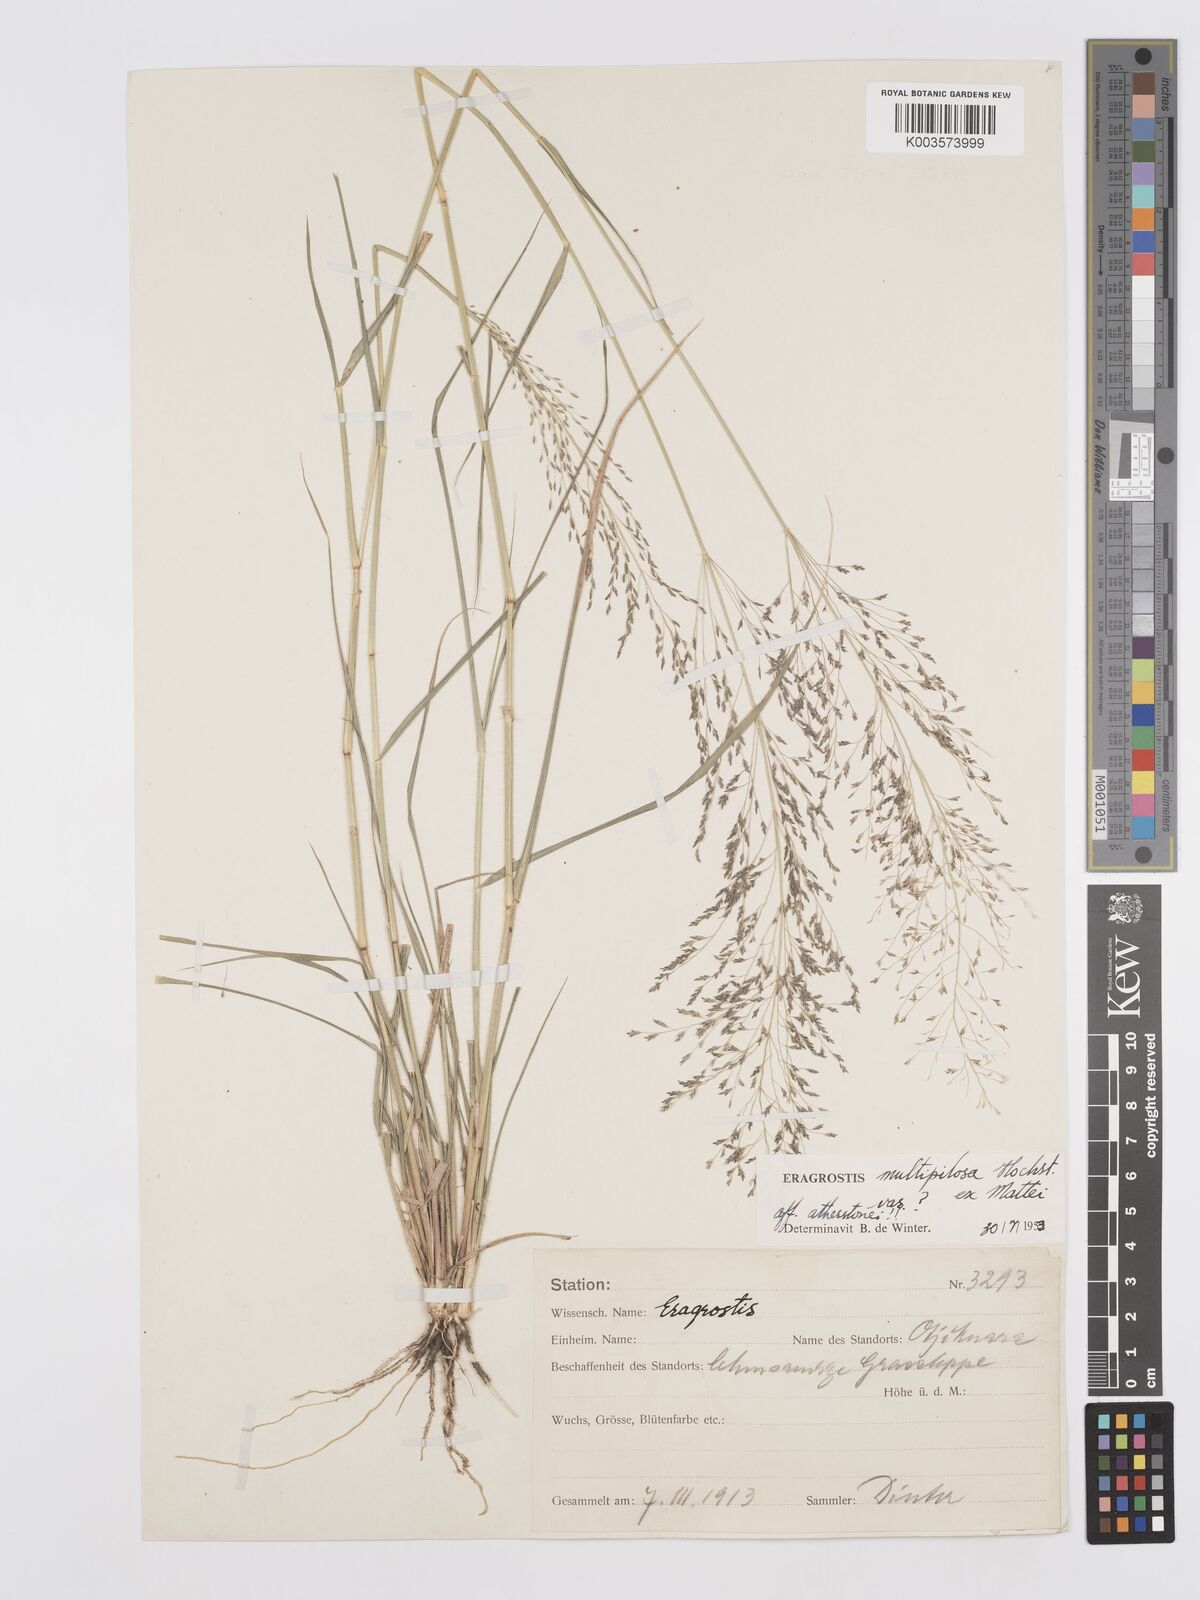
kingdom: Plantae
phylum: Tracheophyta
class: Liliopsida
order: Poales
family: Poaceae
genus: Eragrostis
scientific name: Eragrostis cylindriflora
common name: Cylinderflower lovegrass
